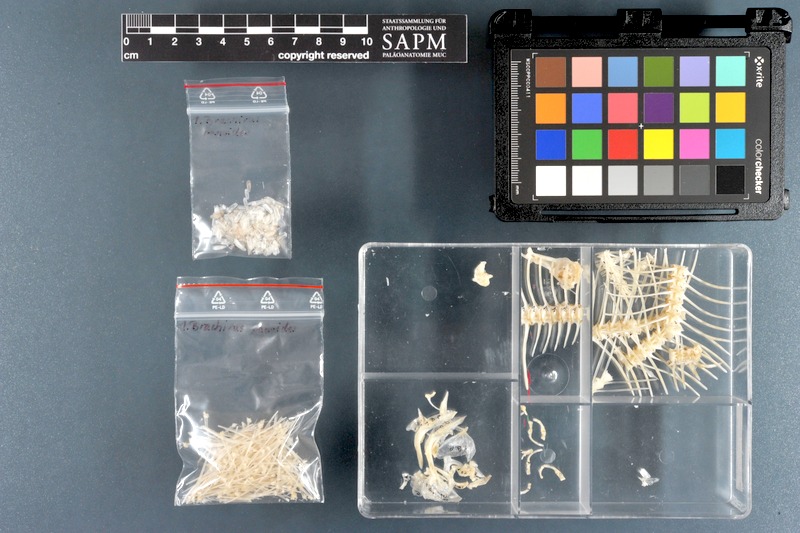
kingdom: Animalia
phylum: Chordata
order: Pleuronectiformes
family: Soleidae
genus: Brachirus
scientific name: Brachirus panoides
